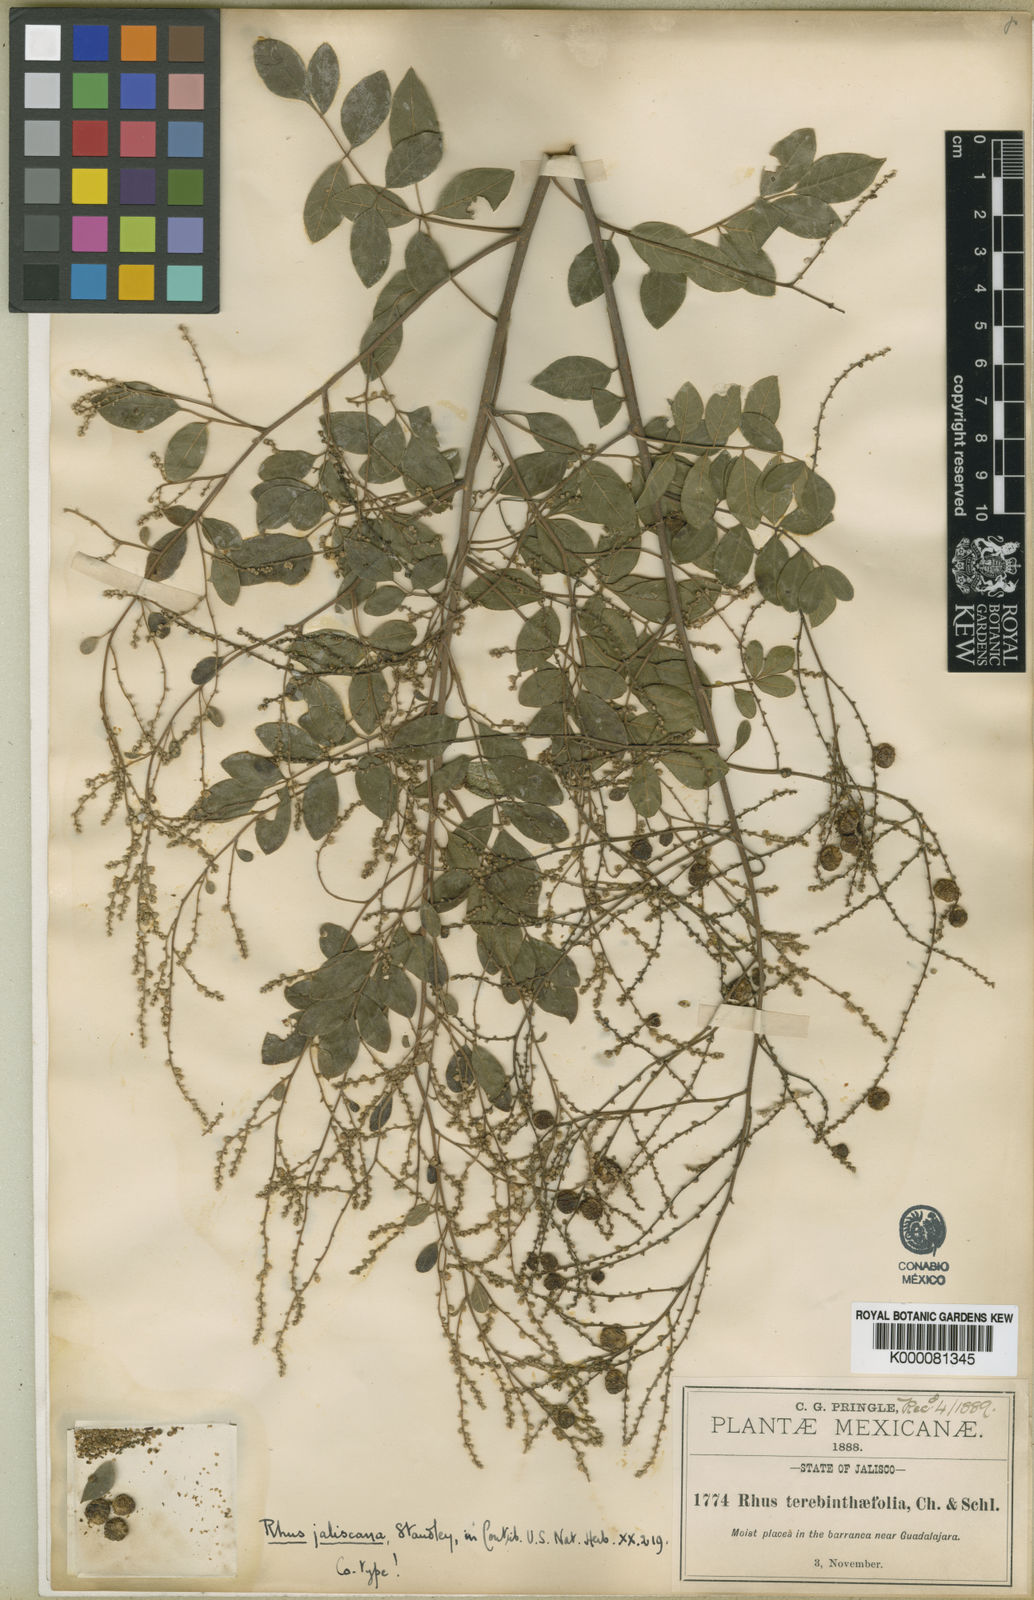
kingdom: Plantae
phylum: Tracheophyta
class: Magnoliopsida
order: Sapindales
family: Anacardiaceae
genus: Rhus
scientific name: Rhus jaliscana
